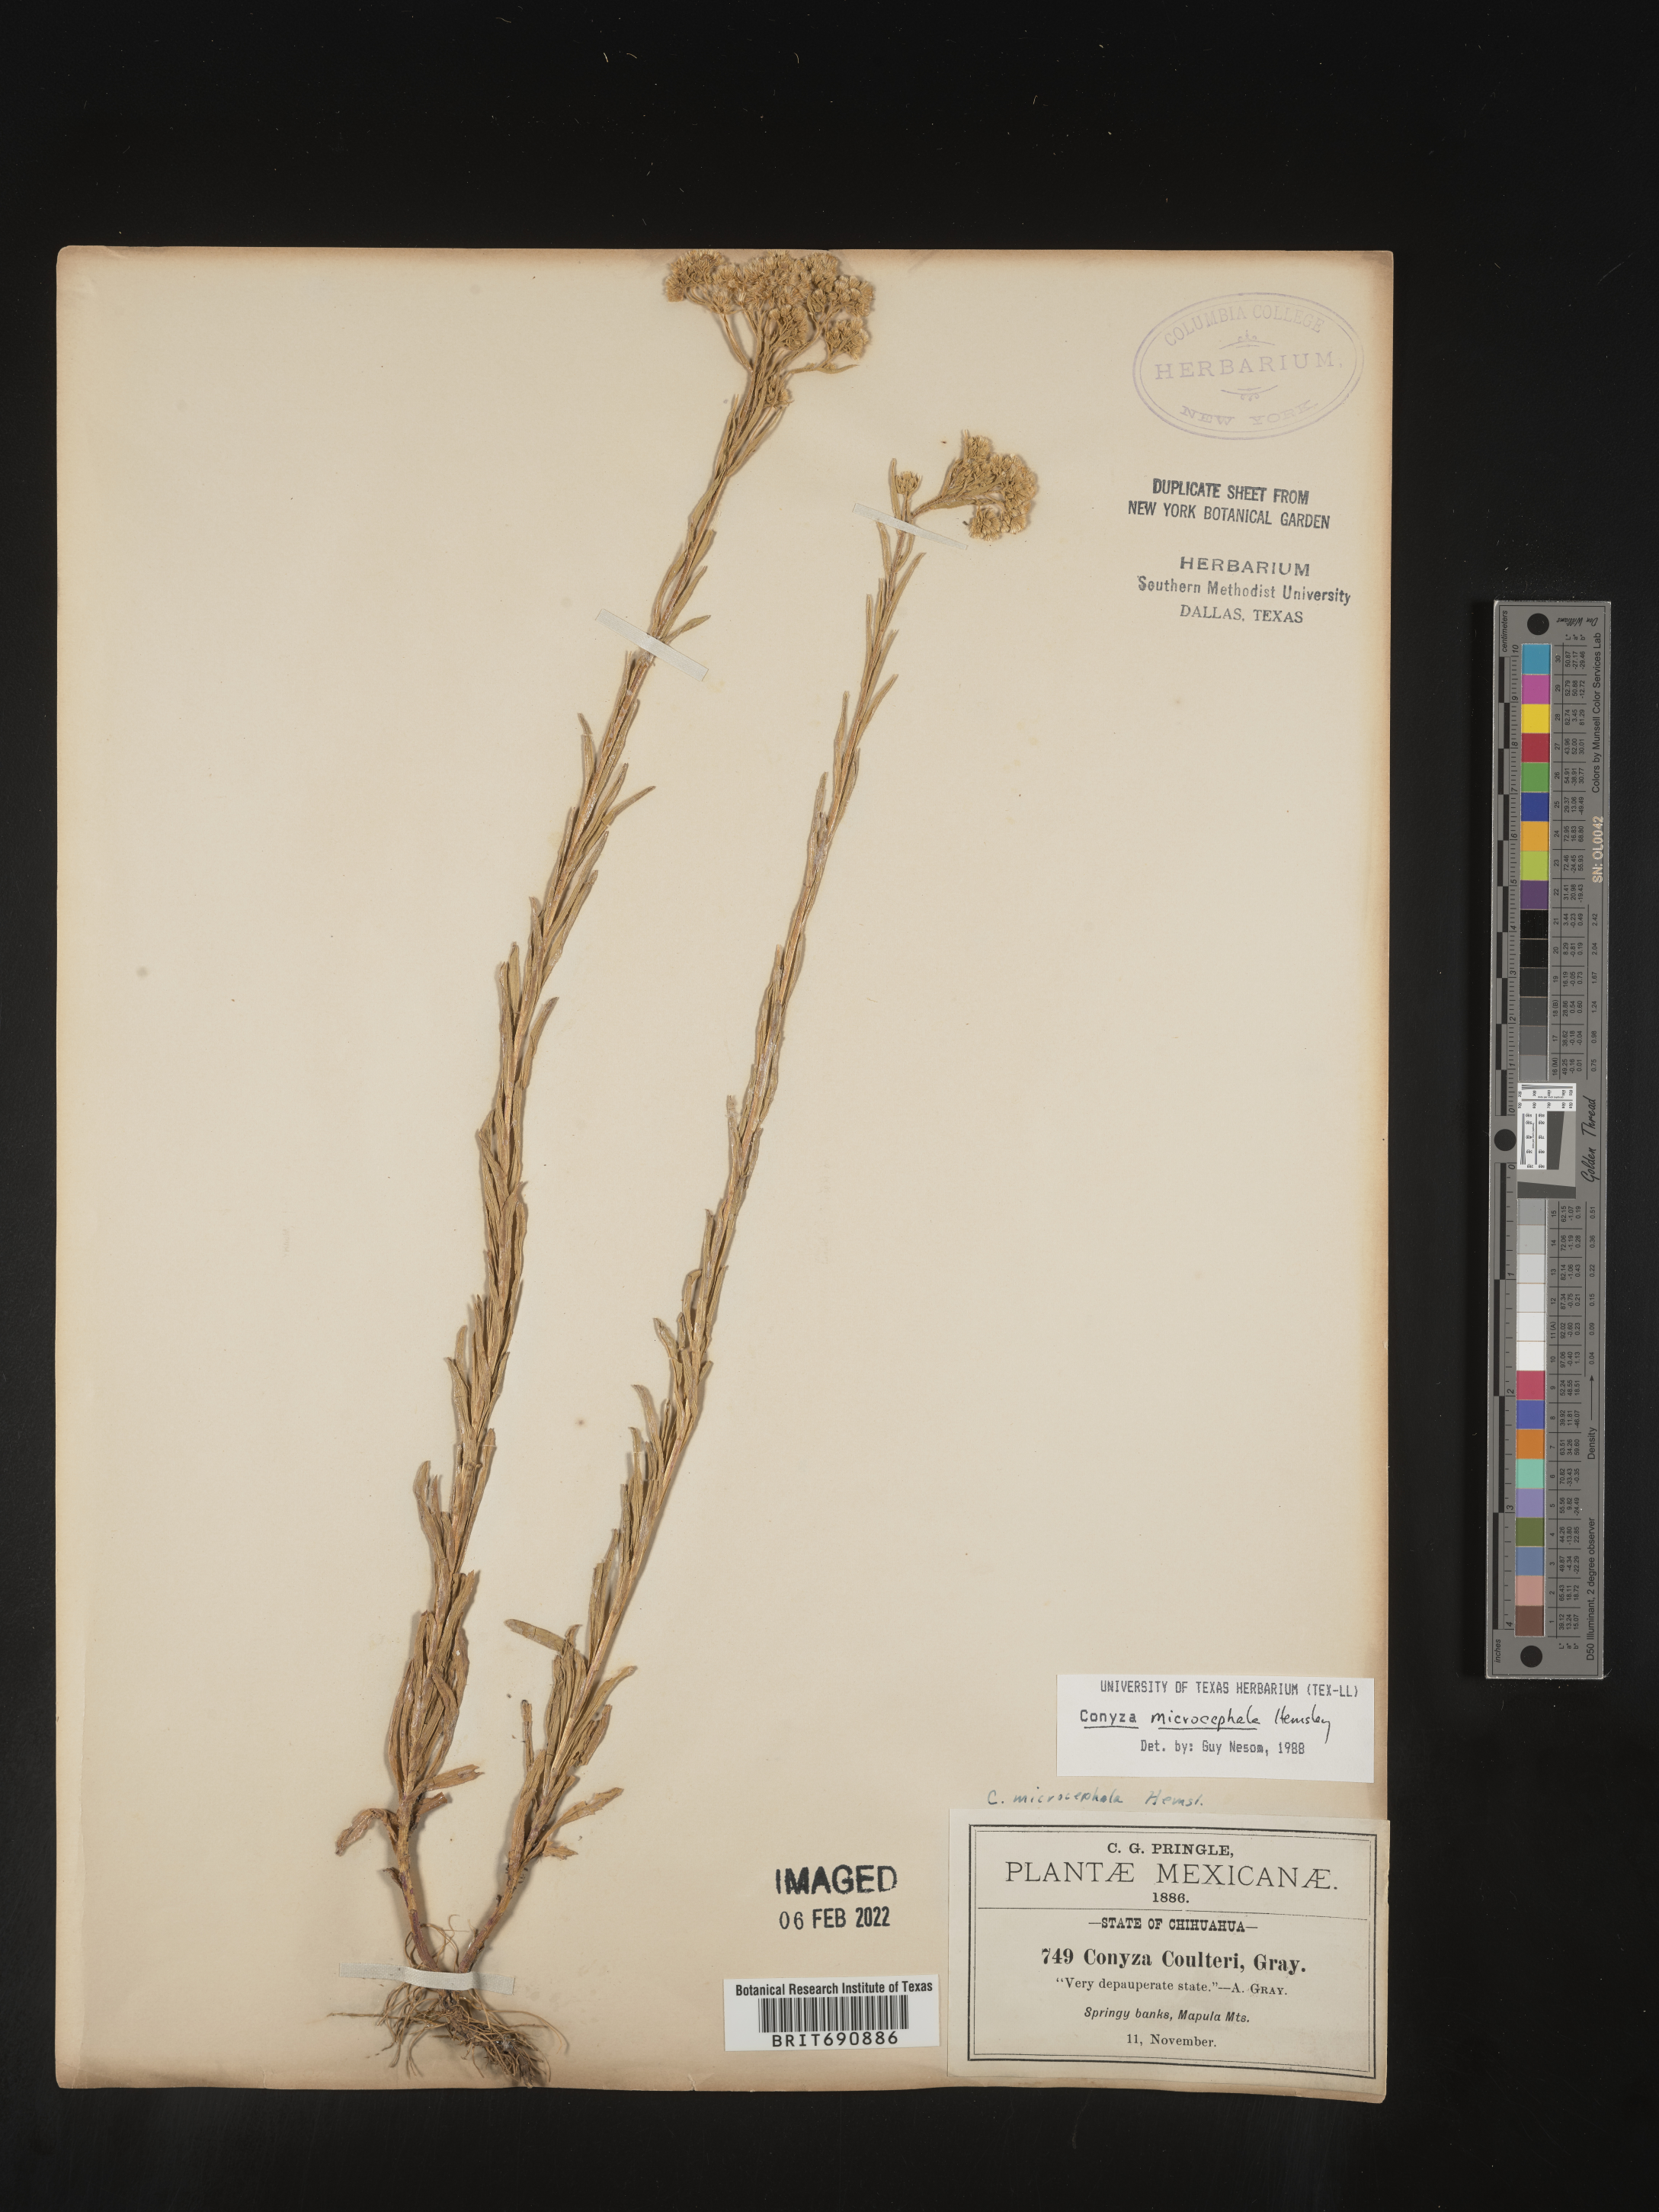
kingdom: Plantae
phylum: Tracheophyta
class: Magnoliopsida
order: Asterales
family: Asteraceae
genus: Erigeron
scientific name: Erigeron columnaris
